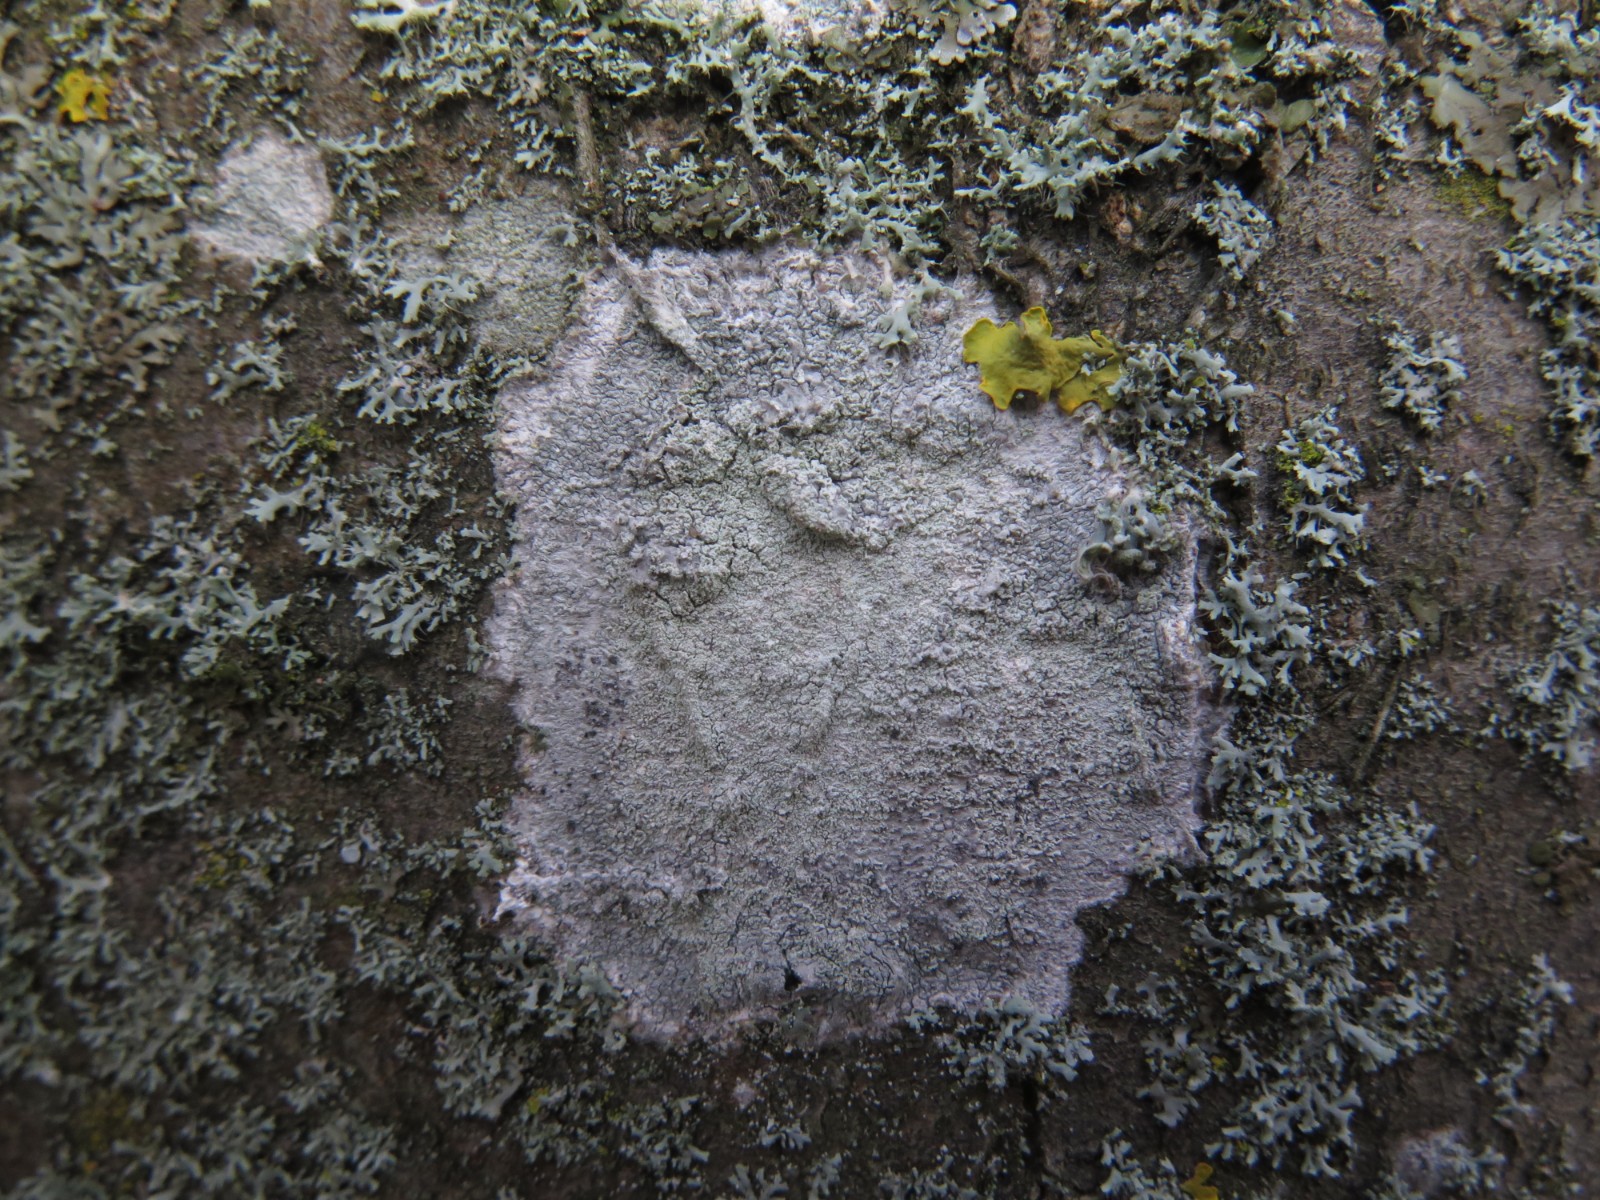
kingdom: Fungi
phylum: Ascomycota
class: Lecanoromycetes
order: Ostropales
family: Phlyctidaceae
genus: Phlyctis
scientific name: Phlyctis argena
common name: almindelig sølvlav
